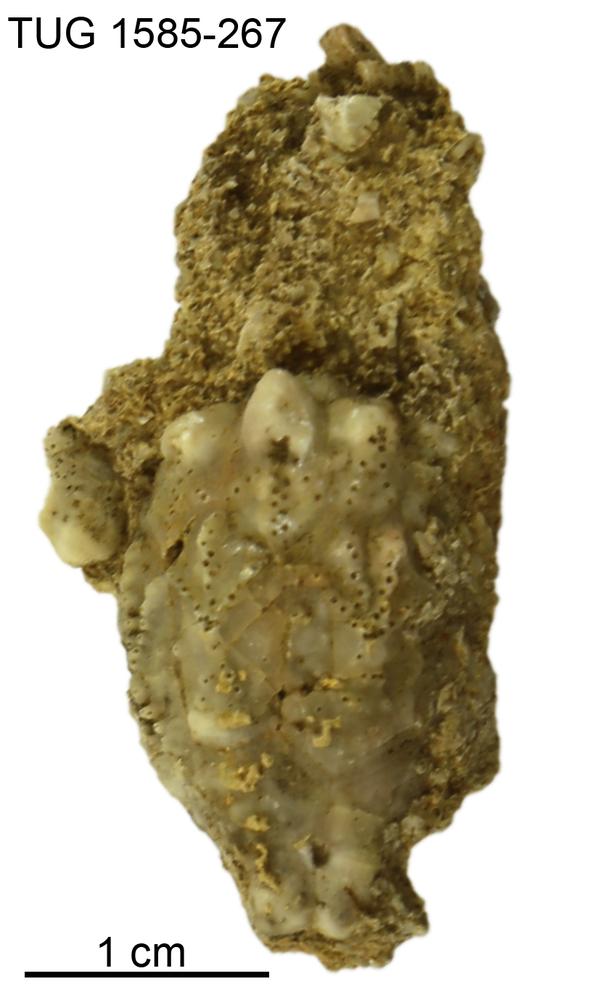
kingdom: Animalia
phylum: Echinodermata
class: Crinoidea
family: Hemicosmitidae
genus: Hemicosmites
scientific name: Hemicosmites
